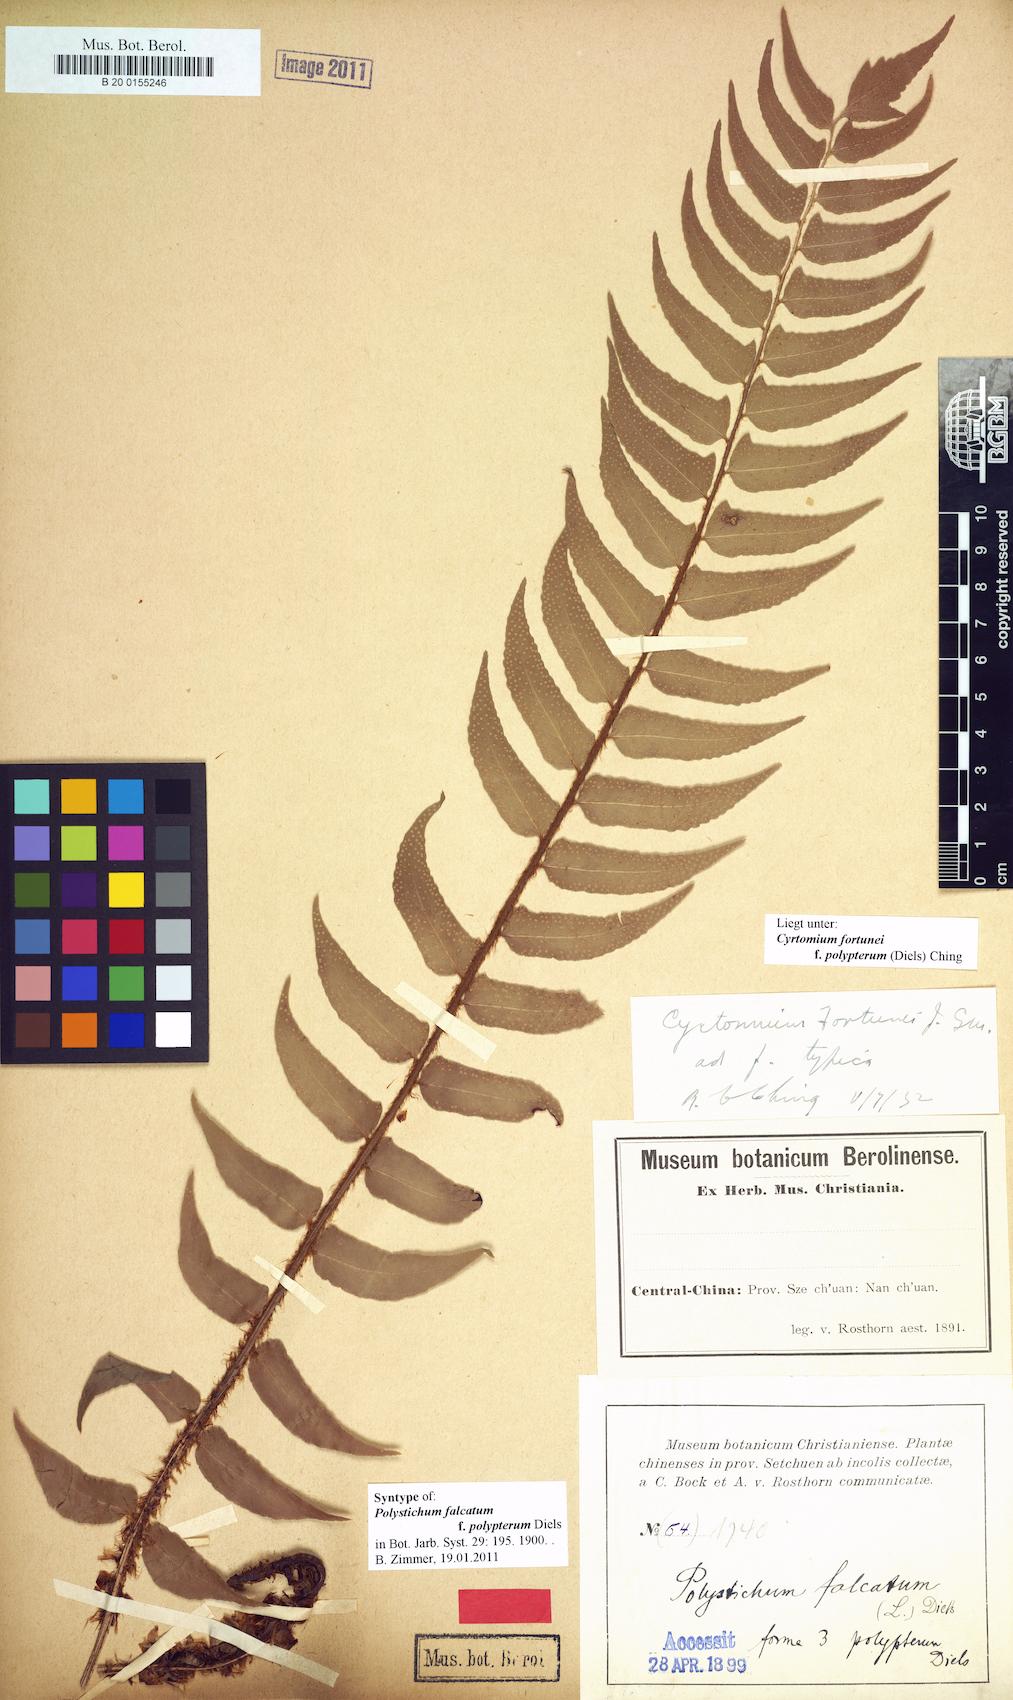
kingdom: Plantae
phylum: Tracheophyta
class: Polypodiopsida
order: Polypodiales
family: Dryopteridaceae
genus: Cyrtomium
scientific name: Cyrtomium fortunei
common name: Asian netvein hollyfern
